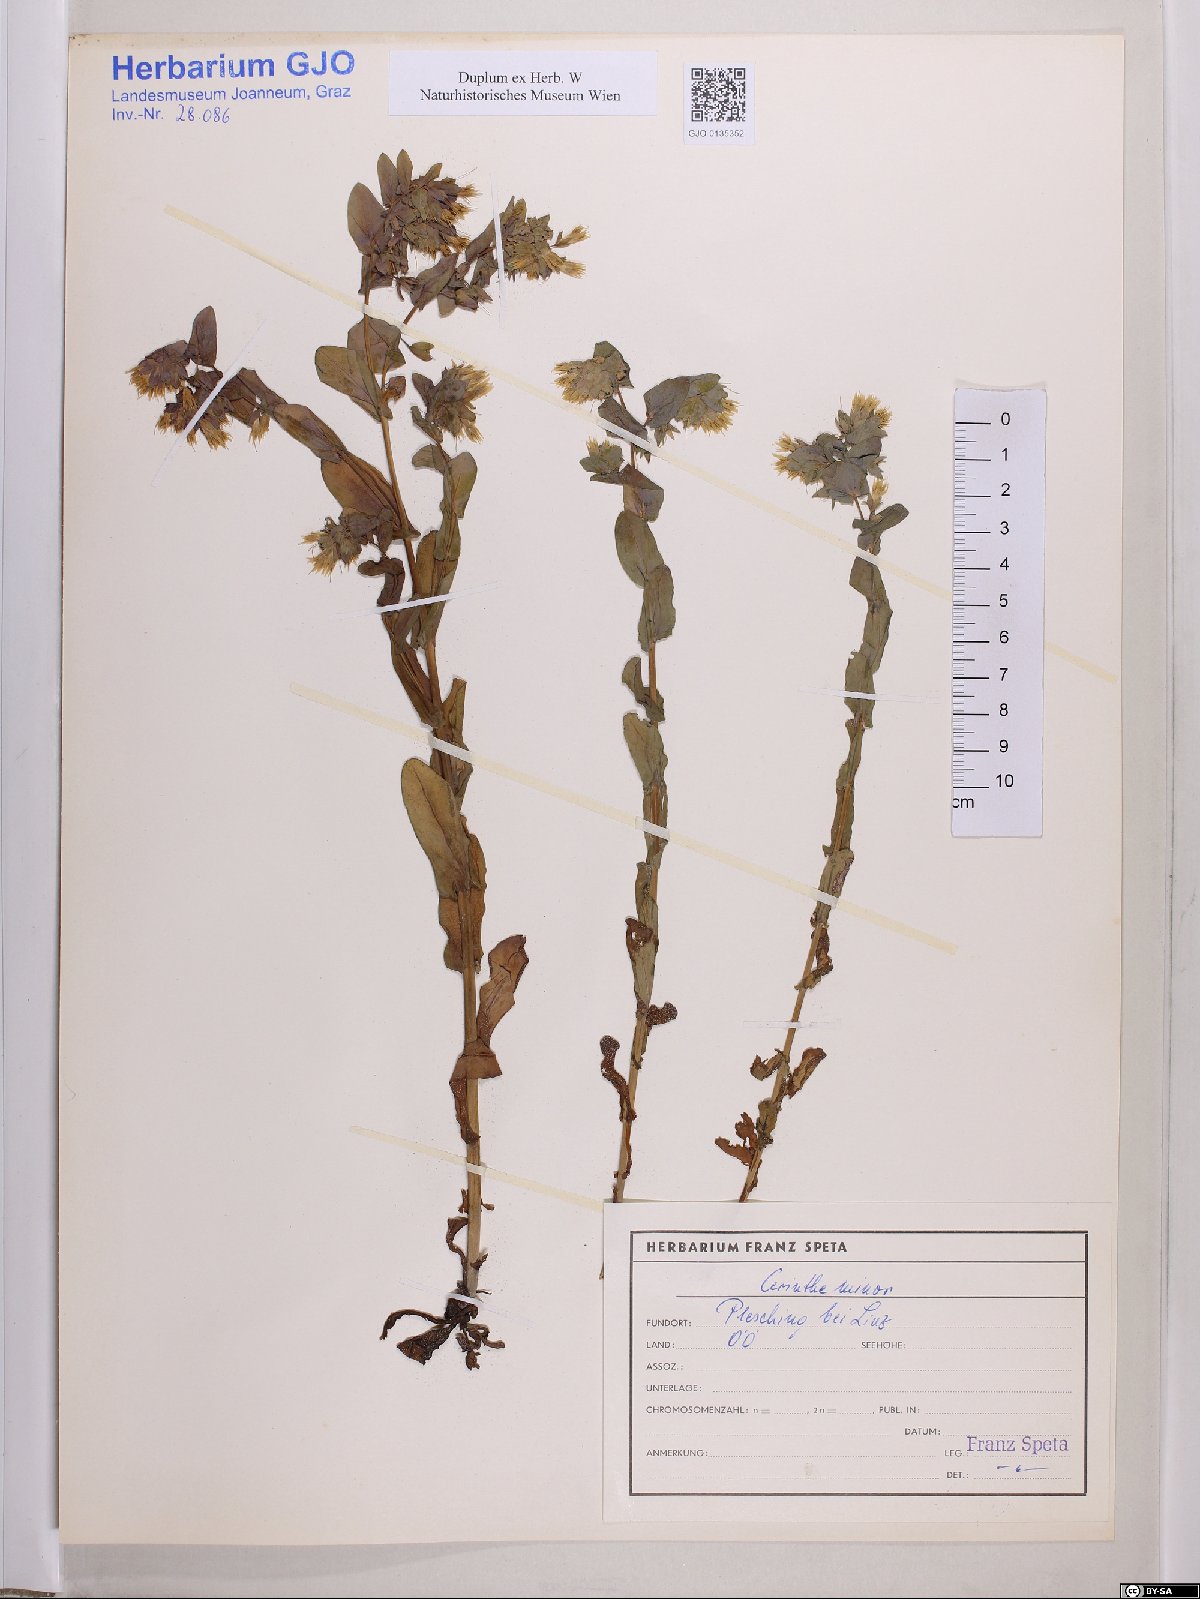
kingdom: Plantae
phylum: Tracheophyta
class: Magnoliopsida
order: Boraginales
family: Boraginaceae
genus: Cerinthe
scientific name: Cerinthe minor
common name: Lesser honeywort
